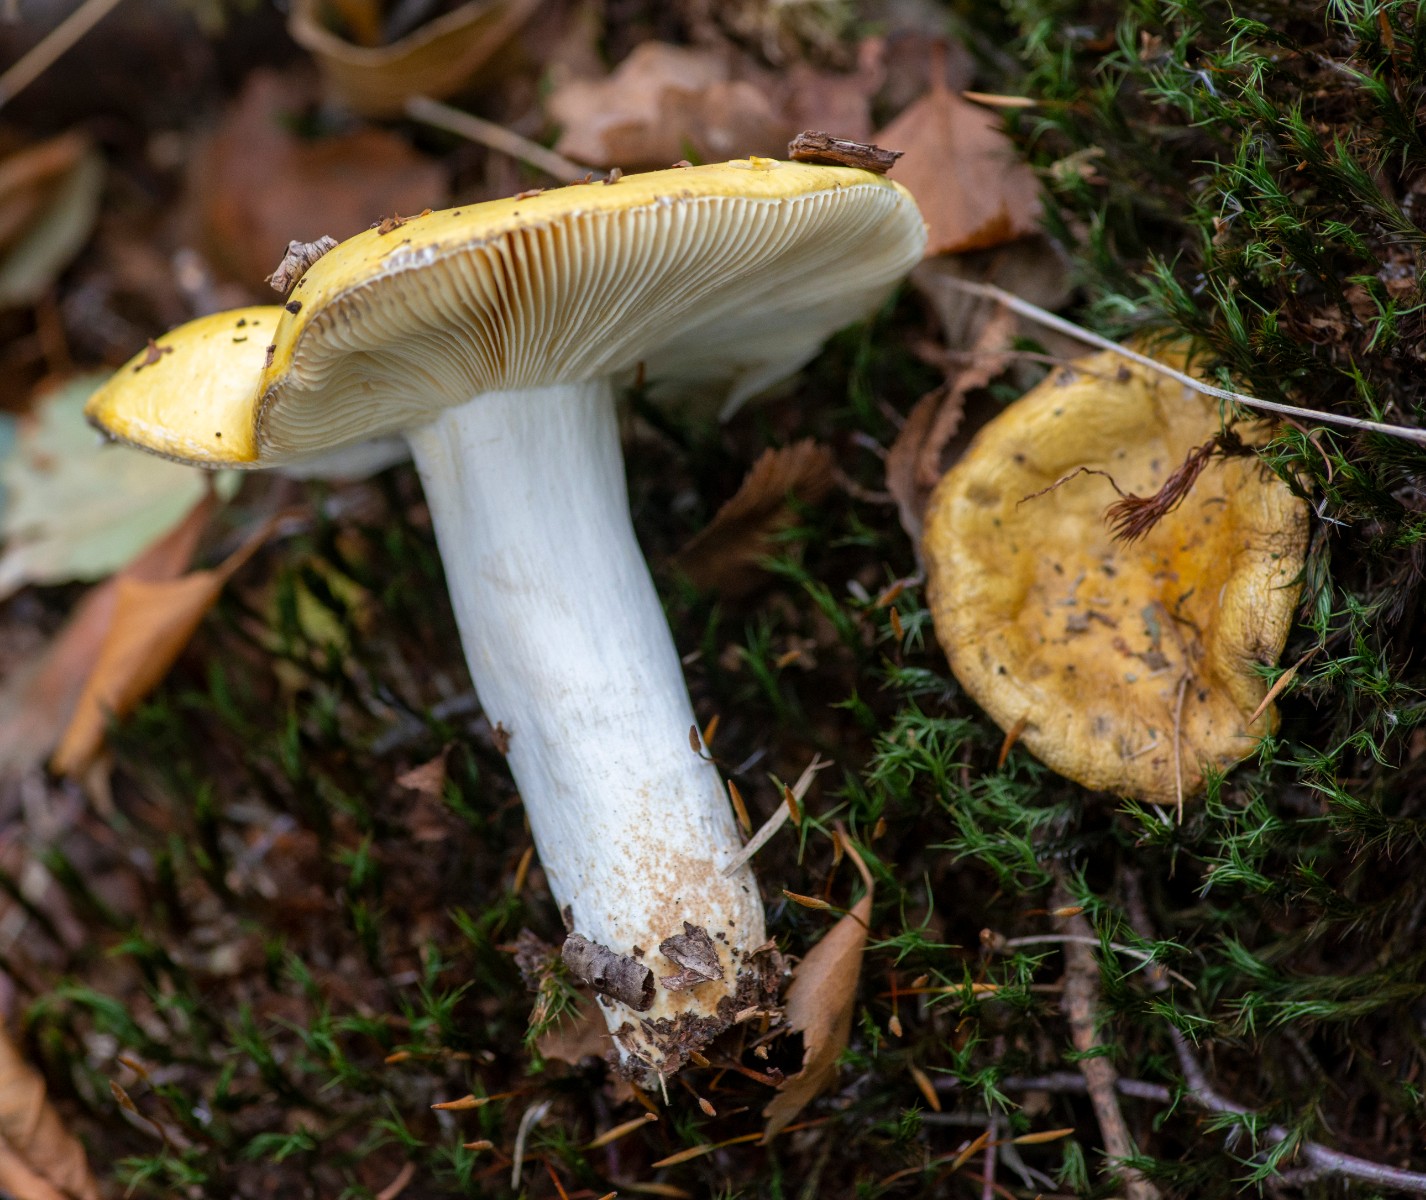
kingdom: Fungi
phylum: Basidiomycota
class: Agaricomycetes
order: Russulales
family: Russulaceae
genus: Russula
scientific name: Russula claroflava
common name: birke-skørhat
